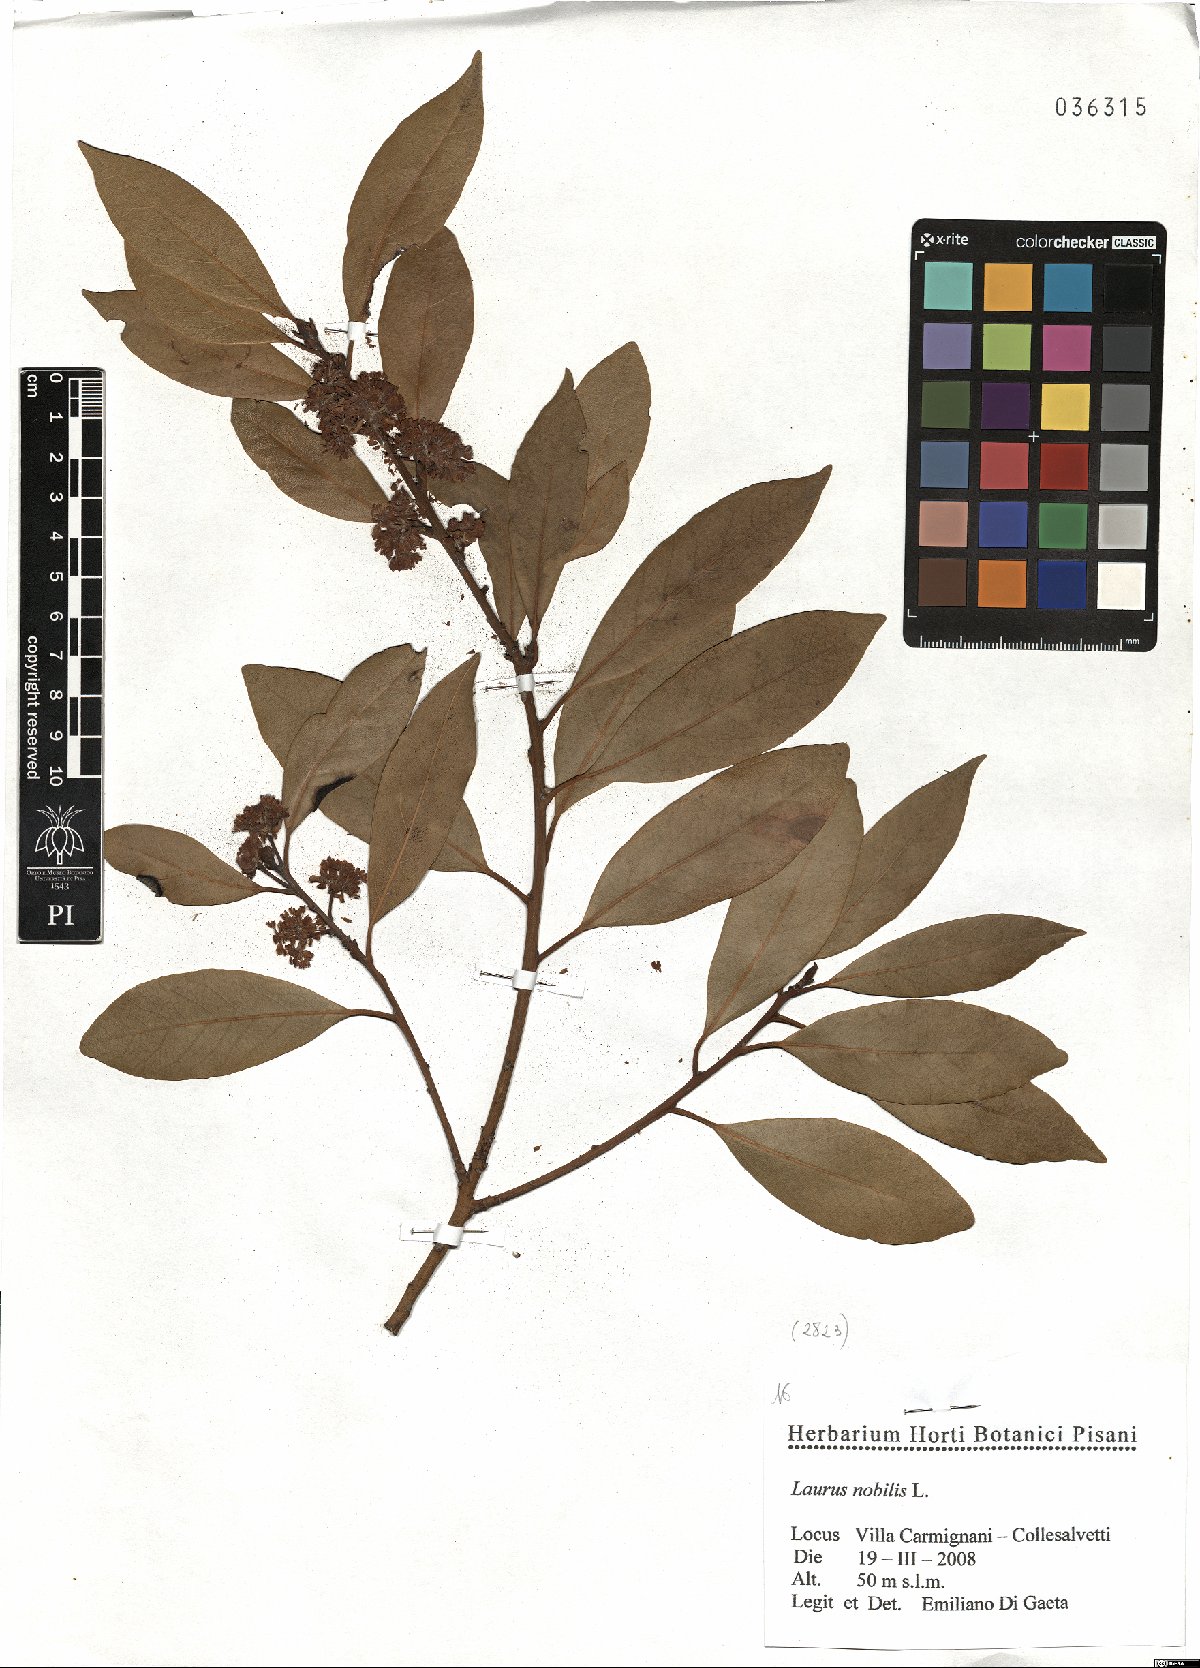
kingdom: Plantae
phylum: Tracheophyta
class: Magnoliopsida
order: Laurales
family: Lauraceae
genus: Laurus
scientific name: Laurus nobilis
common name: Bay
